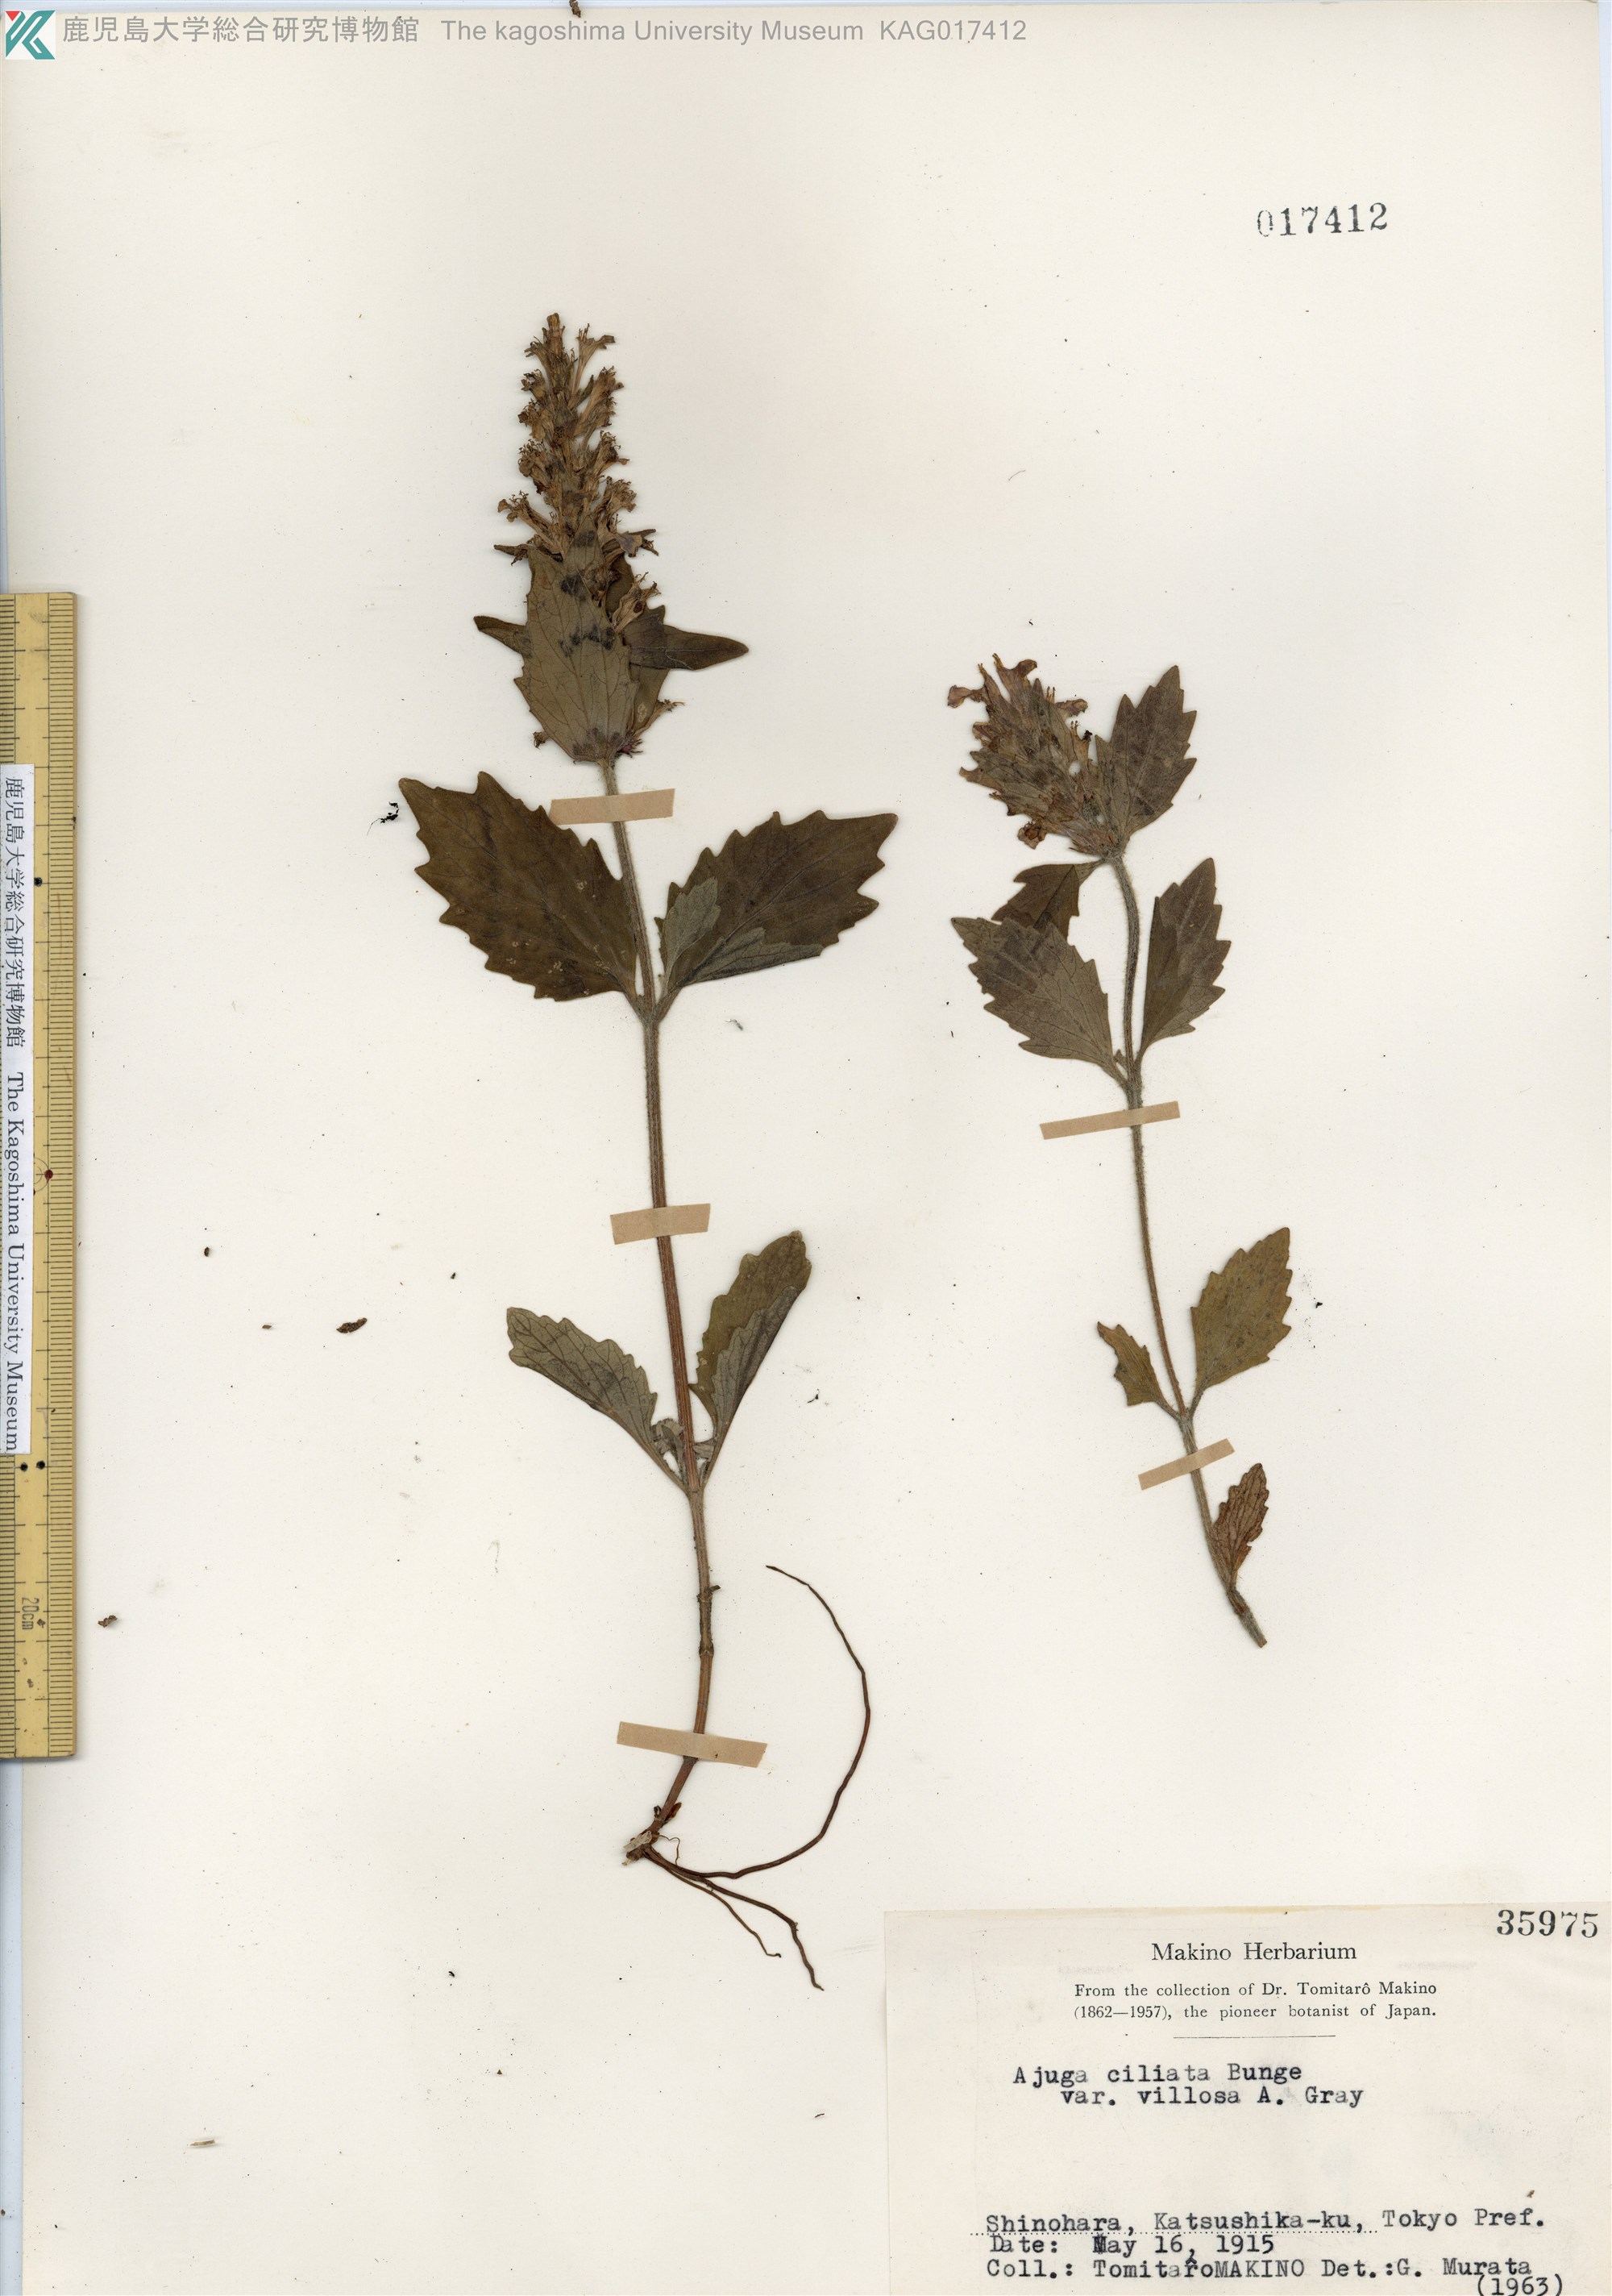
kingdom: Plantae
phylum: Tracheophyta
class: Magnoliopsida
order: Lamiales
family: Lamiaceae
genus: Ajuga
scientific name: Ajuga ciliata
